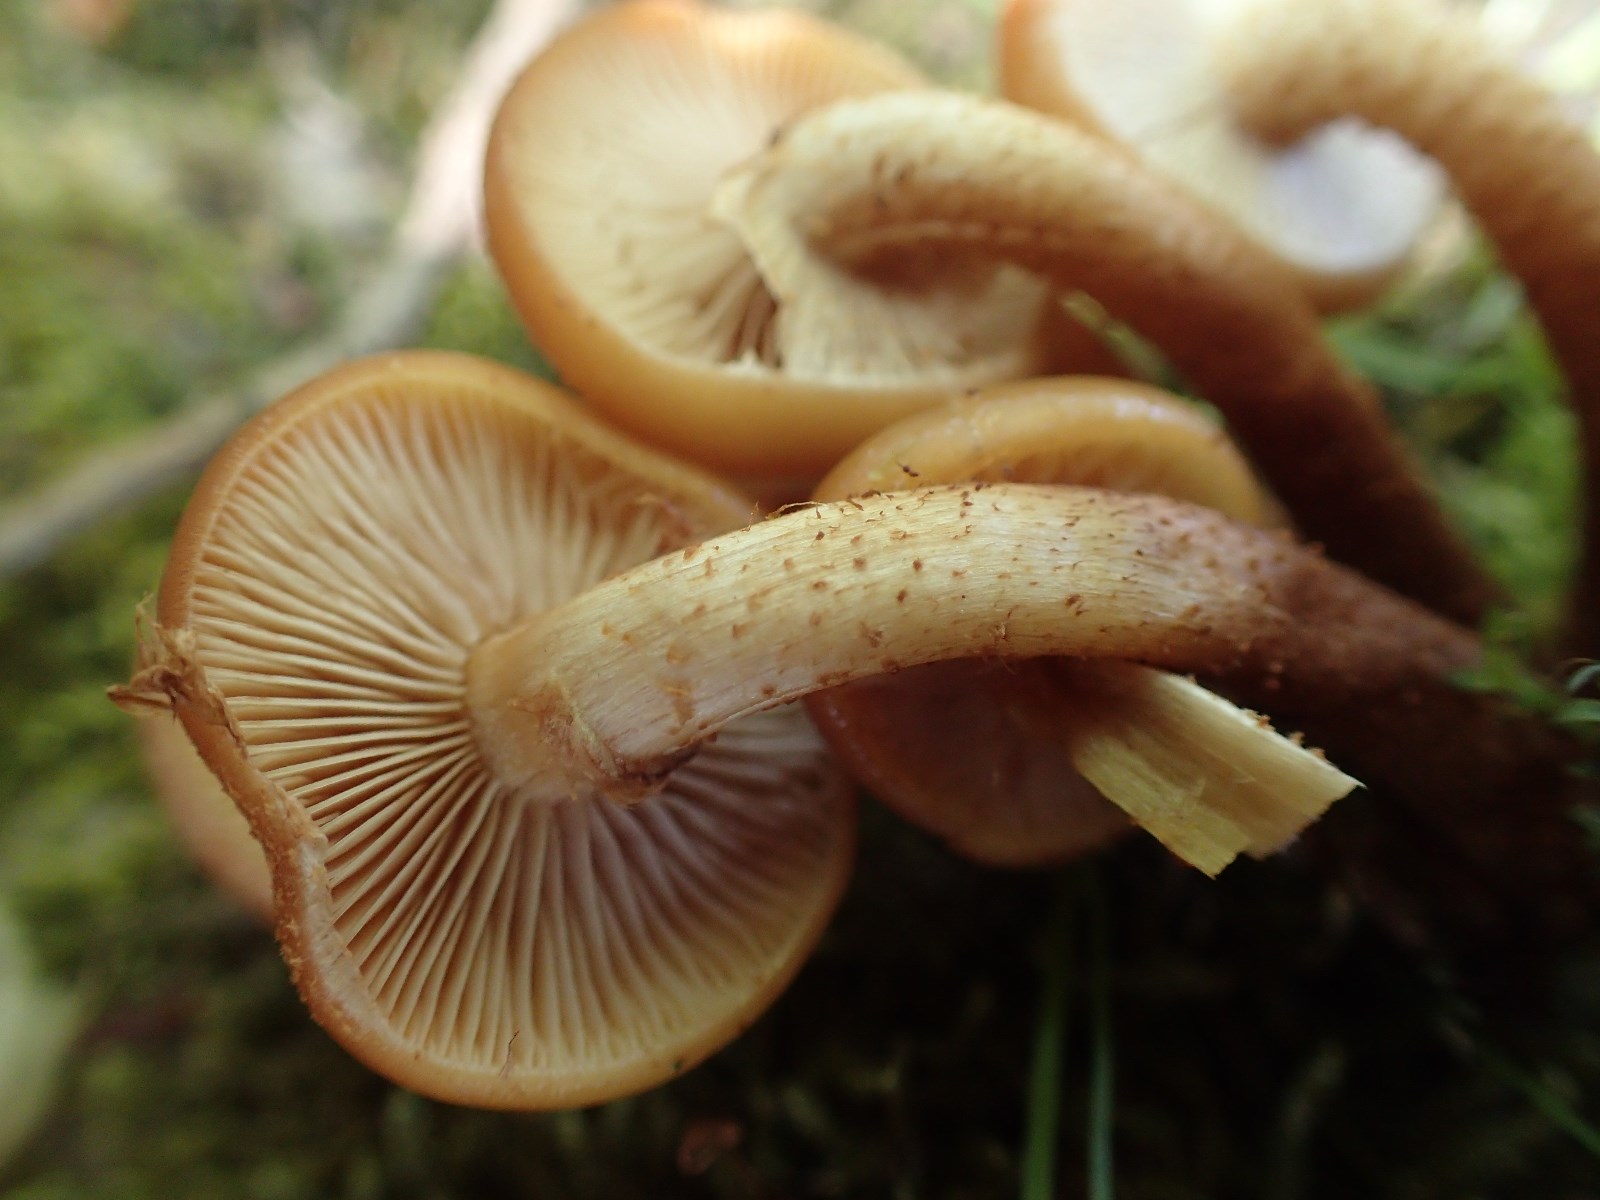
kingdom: Fungi
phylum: Basidiomycota
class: Agaricomycetes
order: Agaricales
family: Strophariaceae
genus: Kuehneromyces
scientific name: Kuehneromyces mutabilis
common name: foranderlig skælhat
